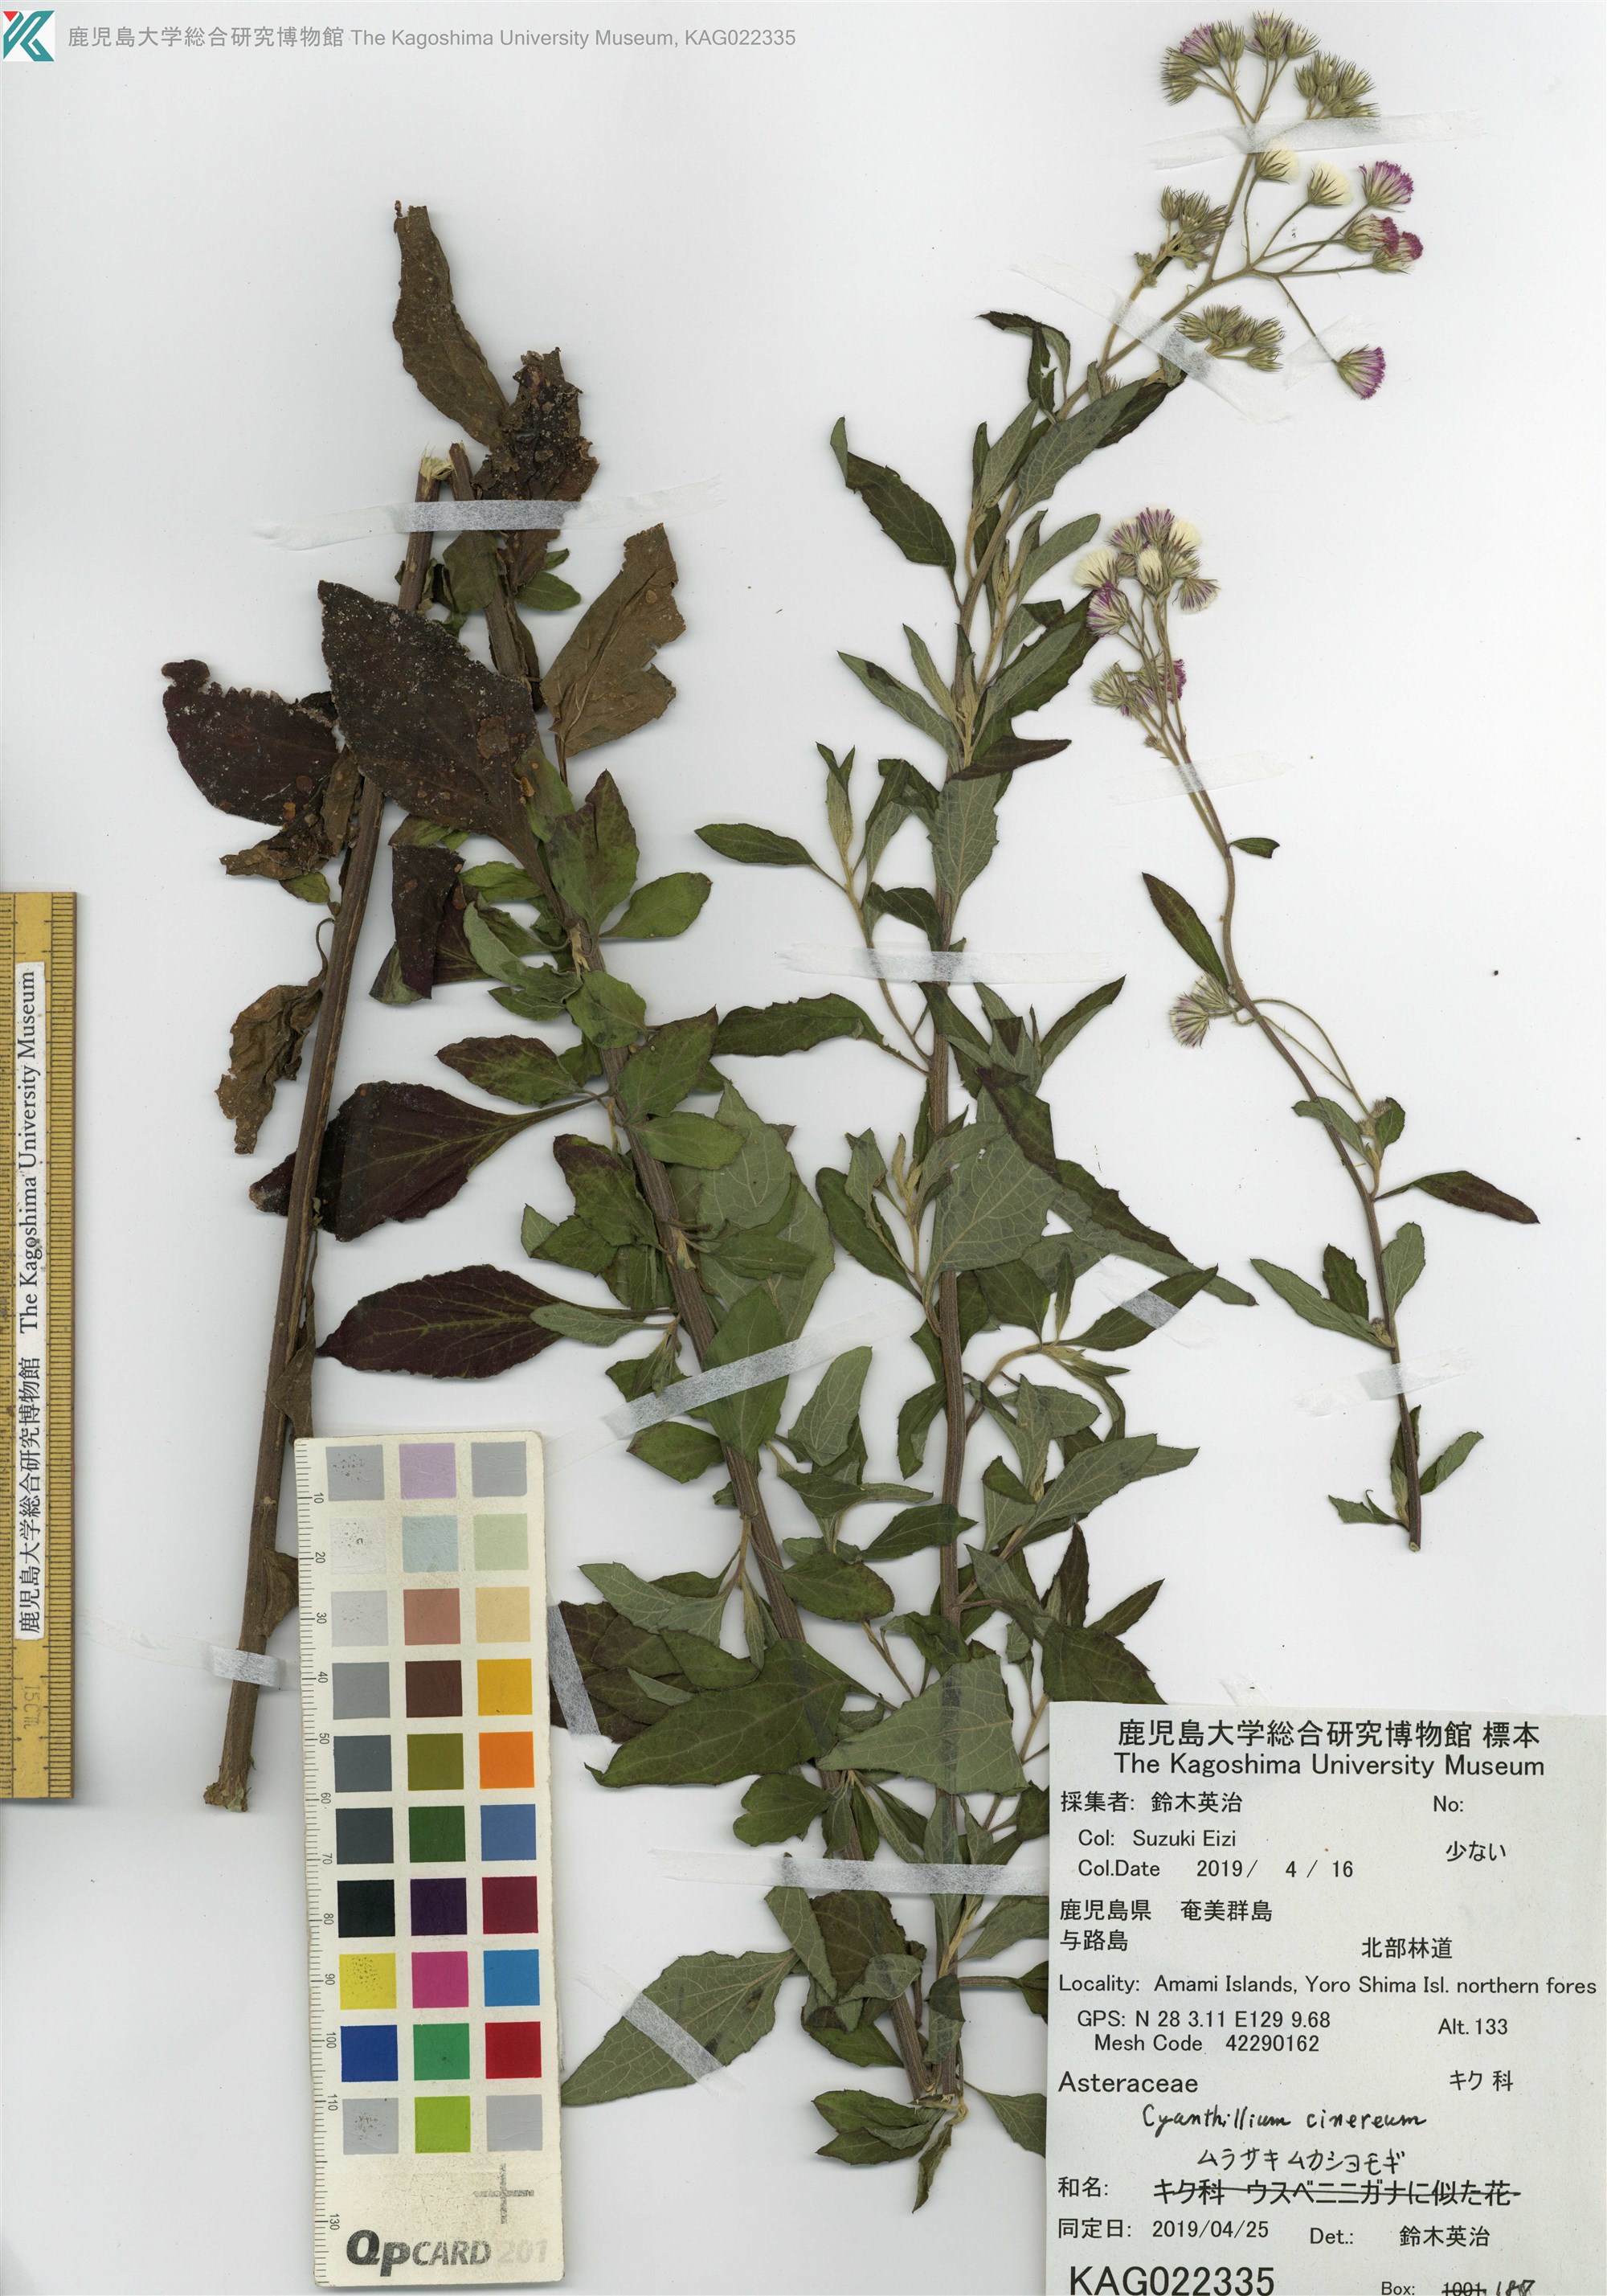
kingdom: Plantae
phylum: Tracheophyta
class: Magnoliopsida
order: Asterales
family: Asteraceae
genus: Cyanthillium
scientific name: Cyanthillium cinereum
